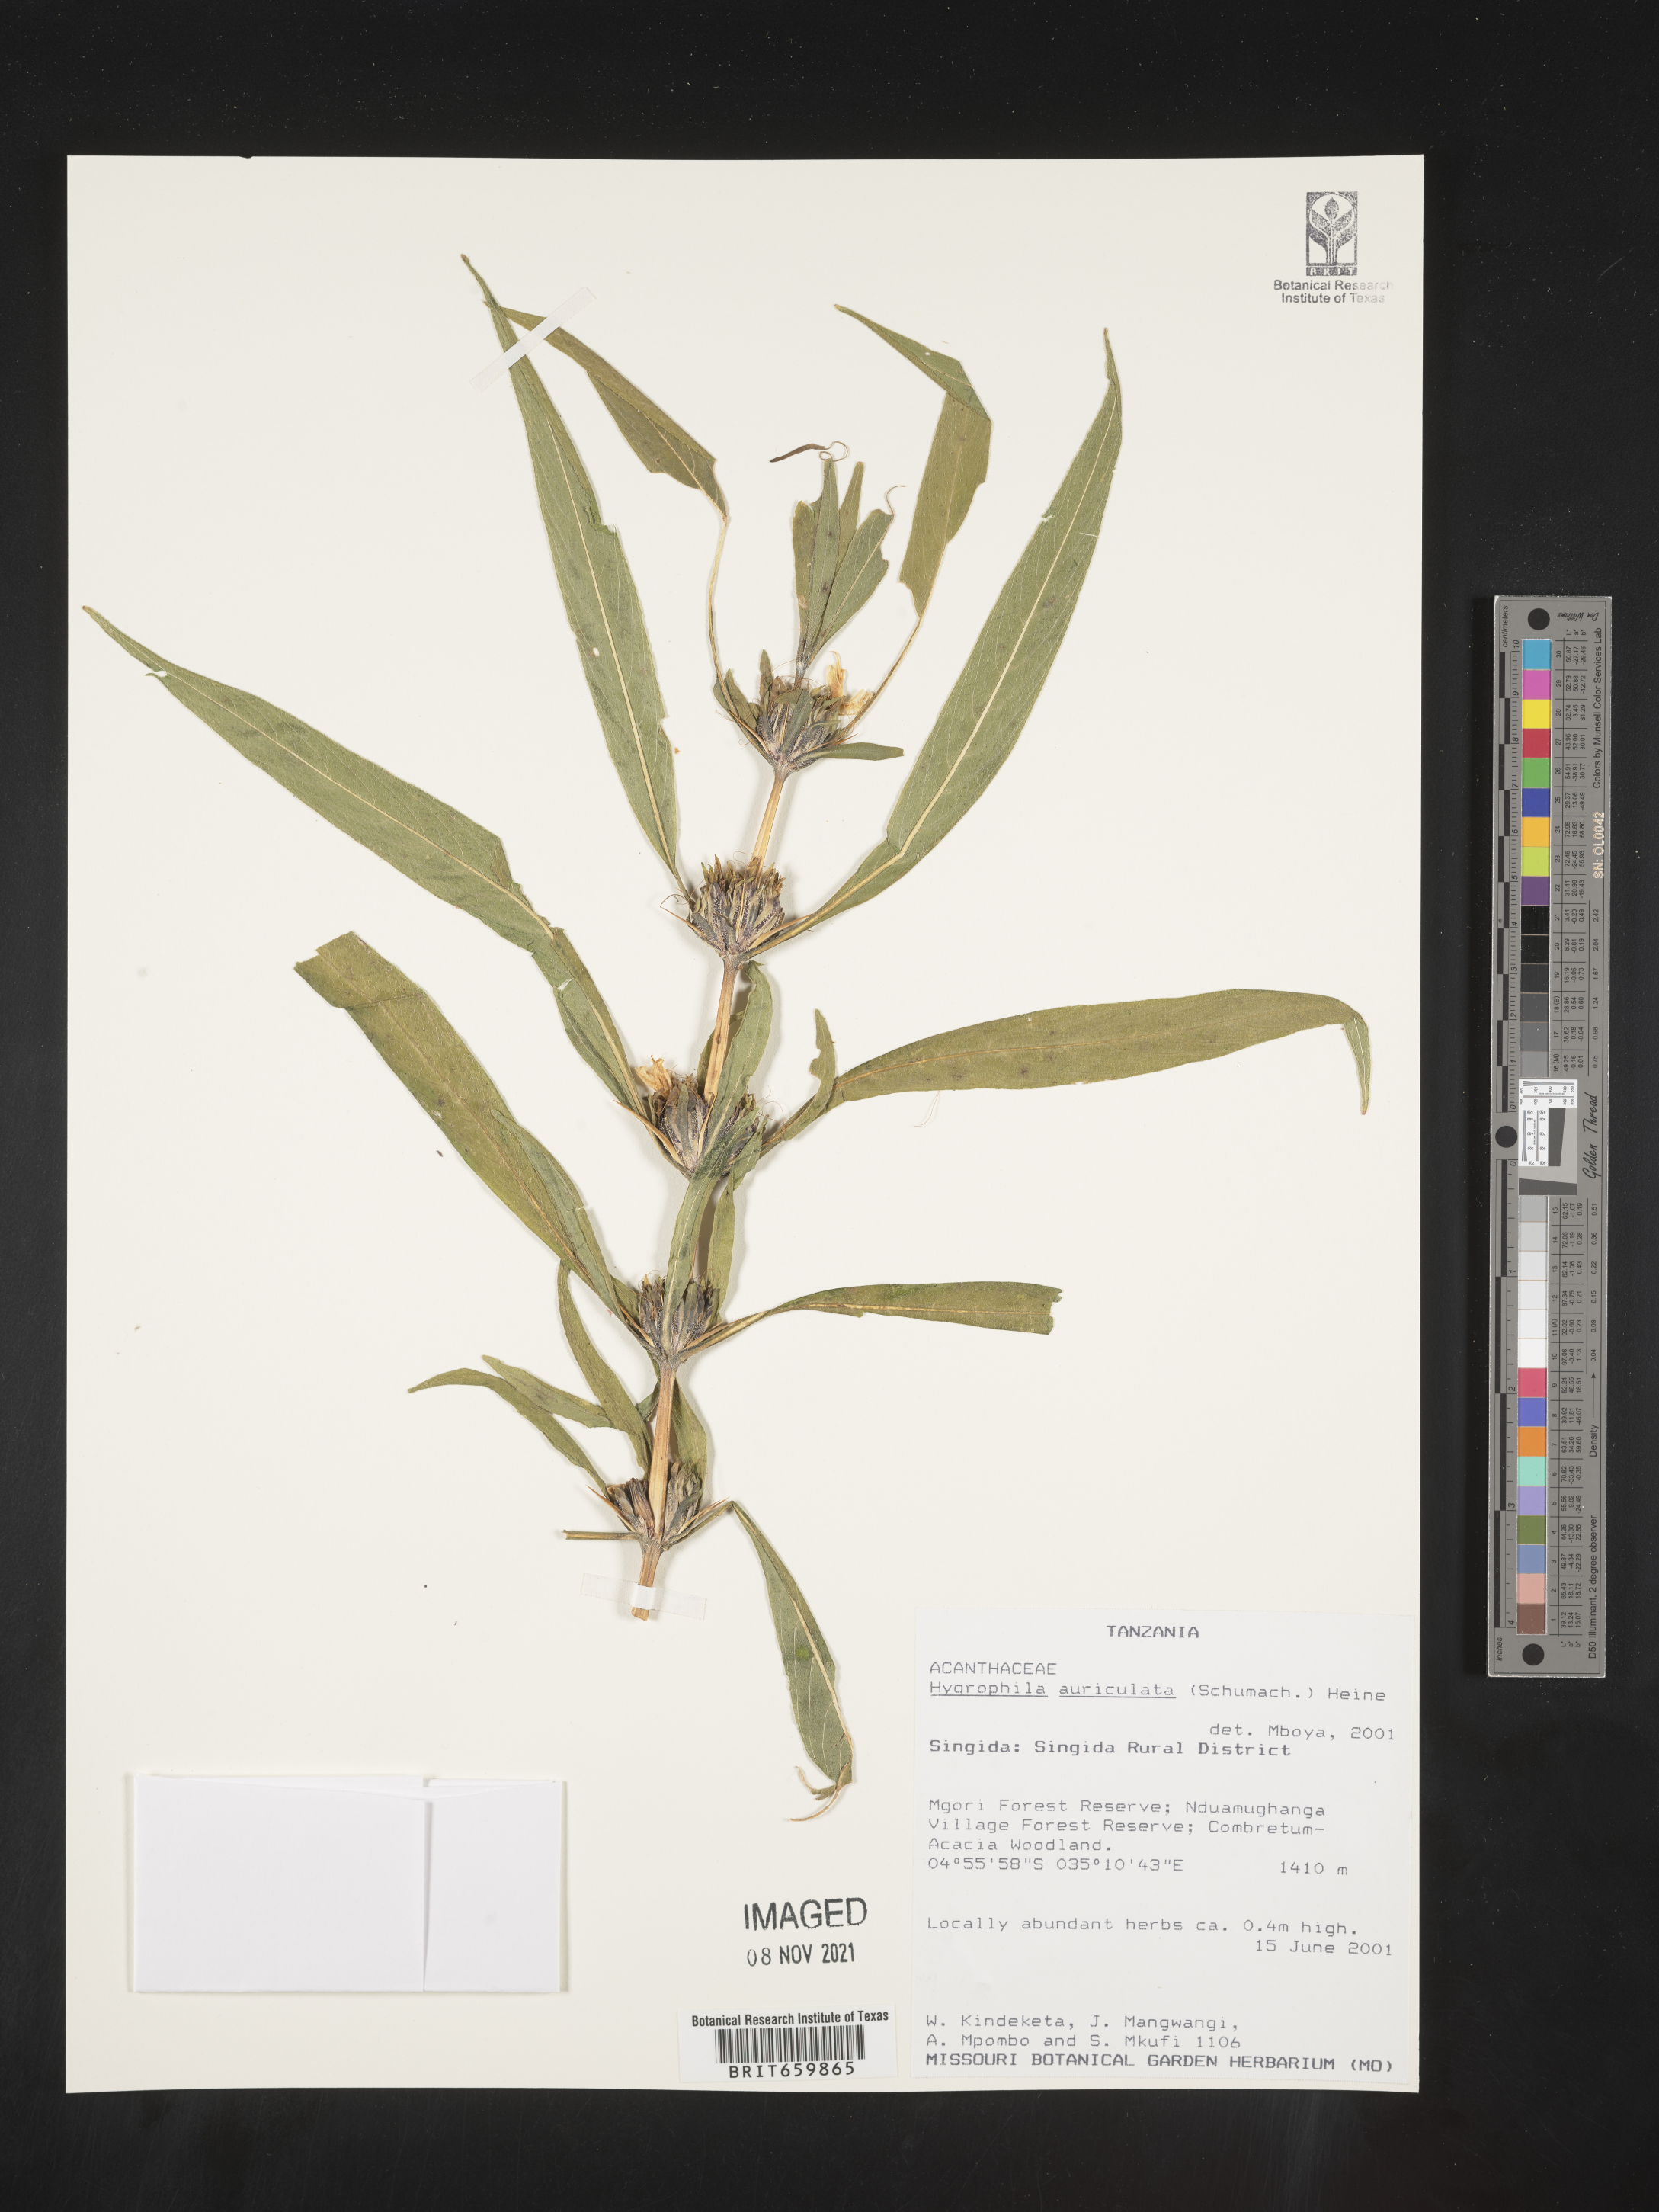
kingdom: Plantae
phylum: Tracheophyta
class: Magnoliopsida
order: Lamiales
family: Acanthaceae
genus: Hygrophila
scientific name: Hygrophila
